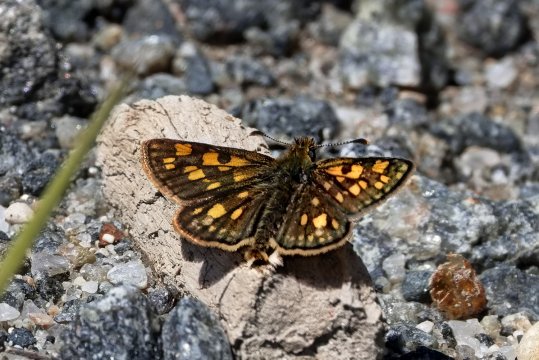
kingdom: Animalia
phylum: Arthropoda
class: Insecta
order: Lepidoptera
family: Hesperiidae
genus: Carterocephalus
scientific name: Carterocephalus mandan
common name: Arctic Skipperling
